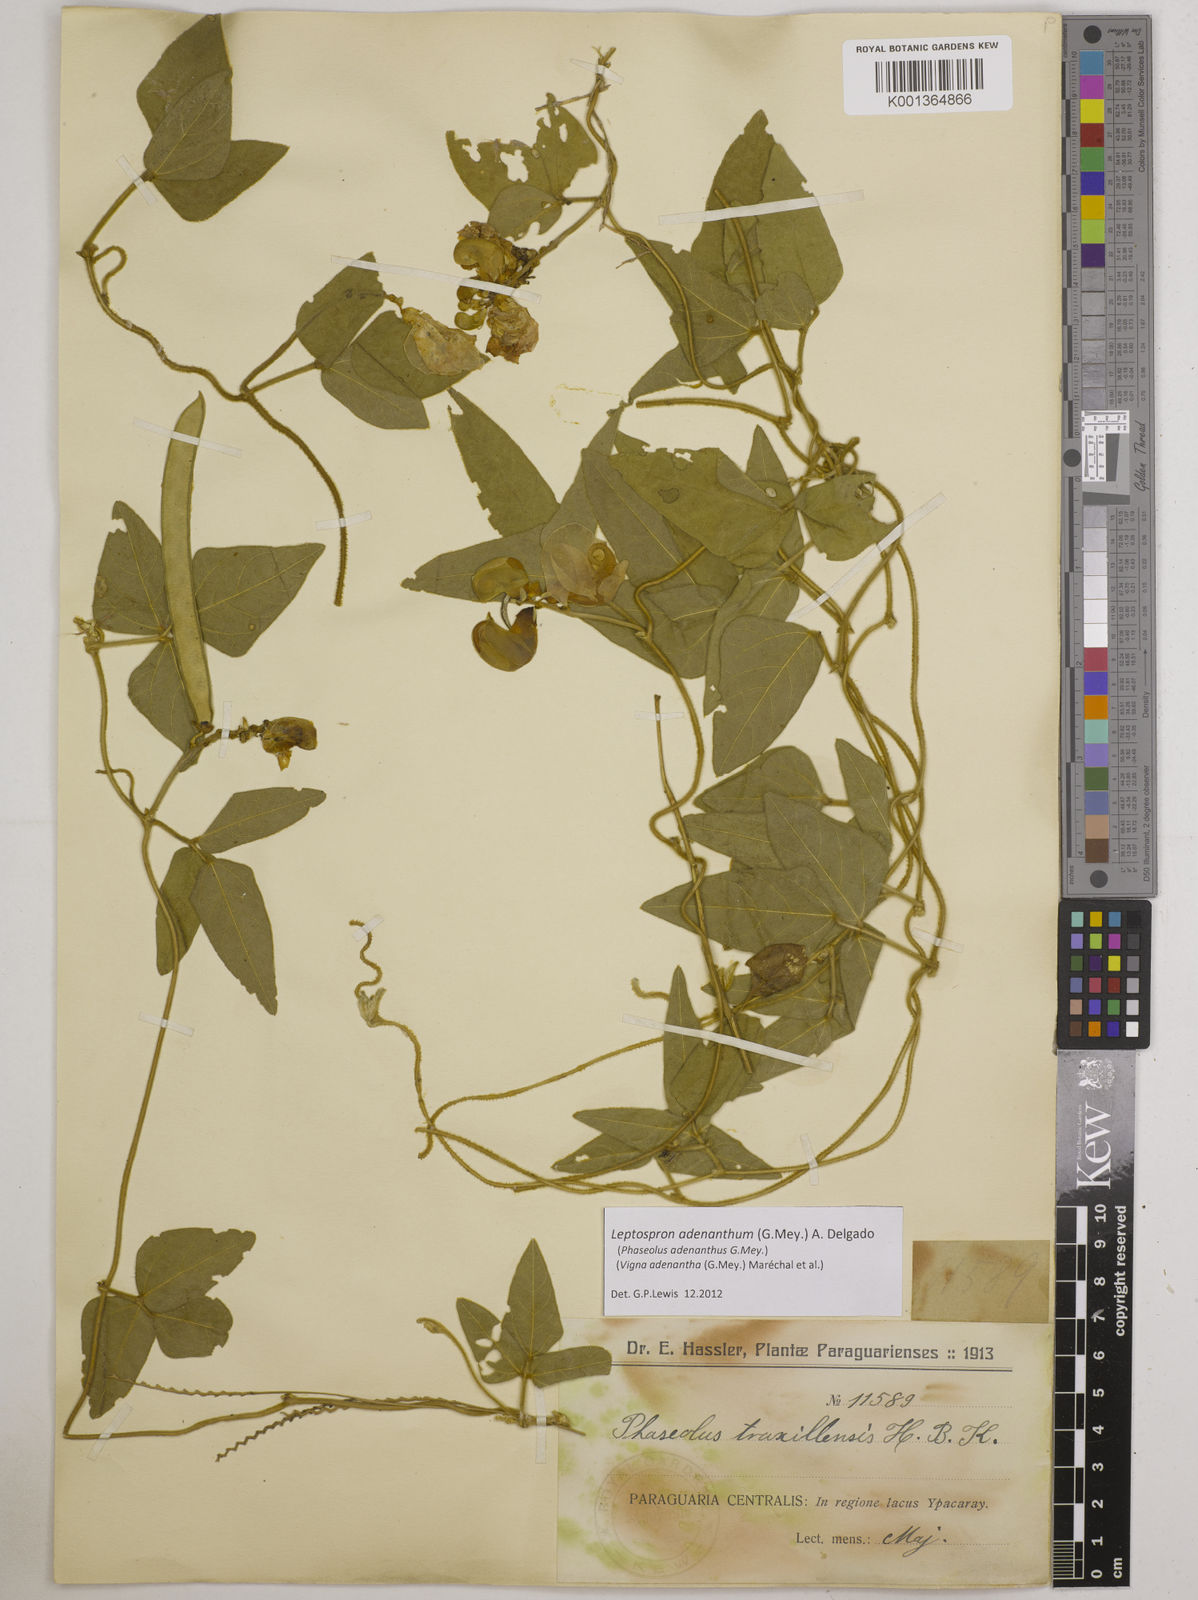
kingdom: Plantae
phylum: Tracheophyta
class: Magnoliopsida
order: Fabales
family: Fabaceae
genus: Leptospron
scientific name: Leptospron adenanthum
